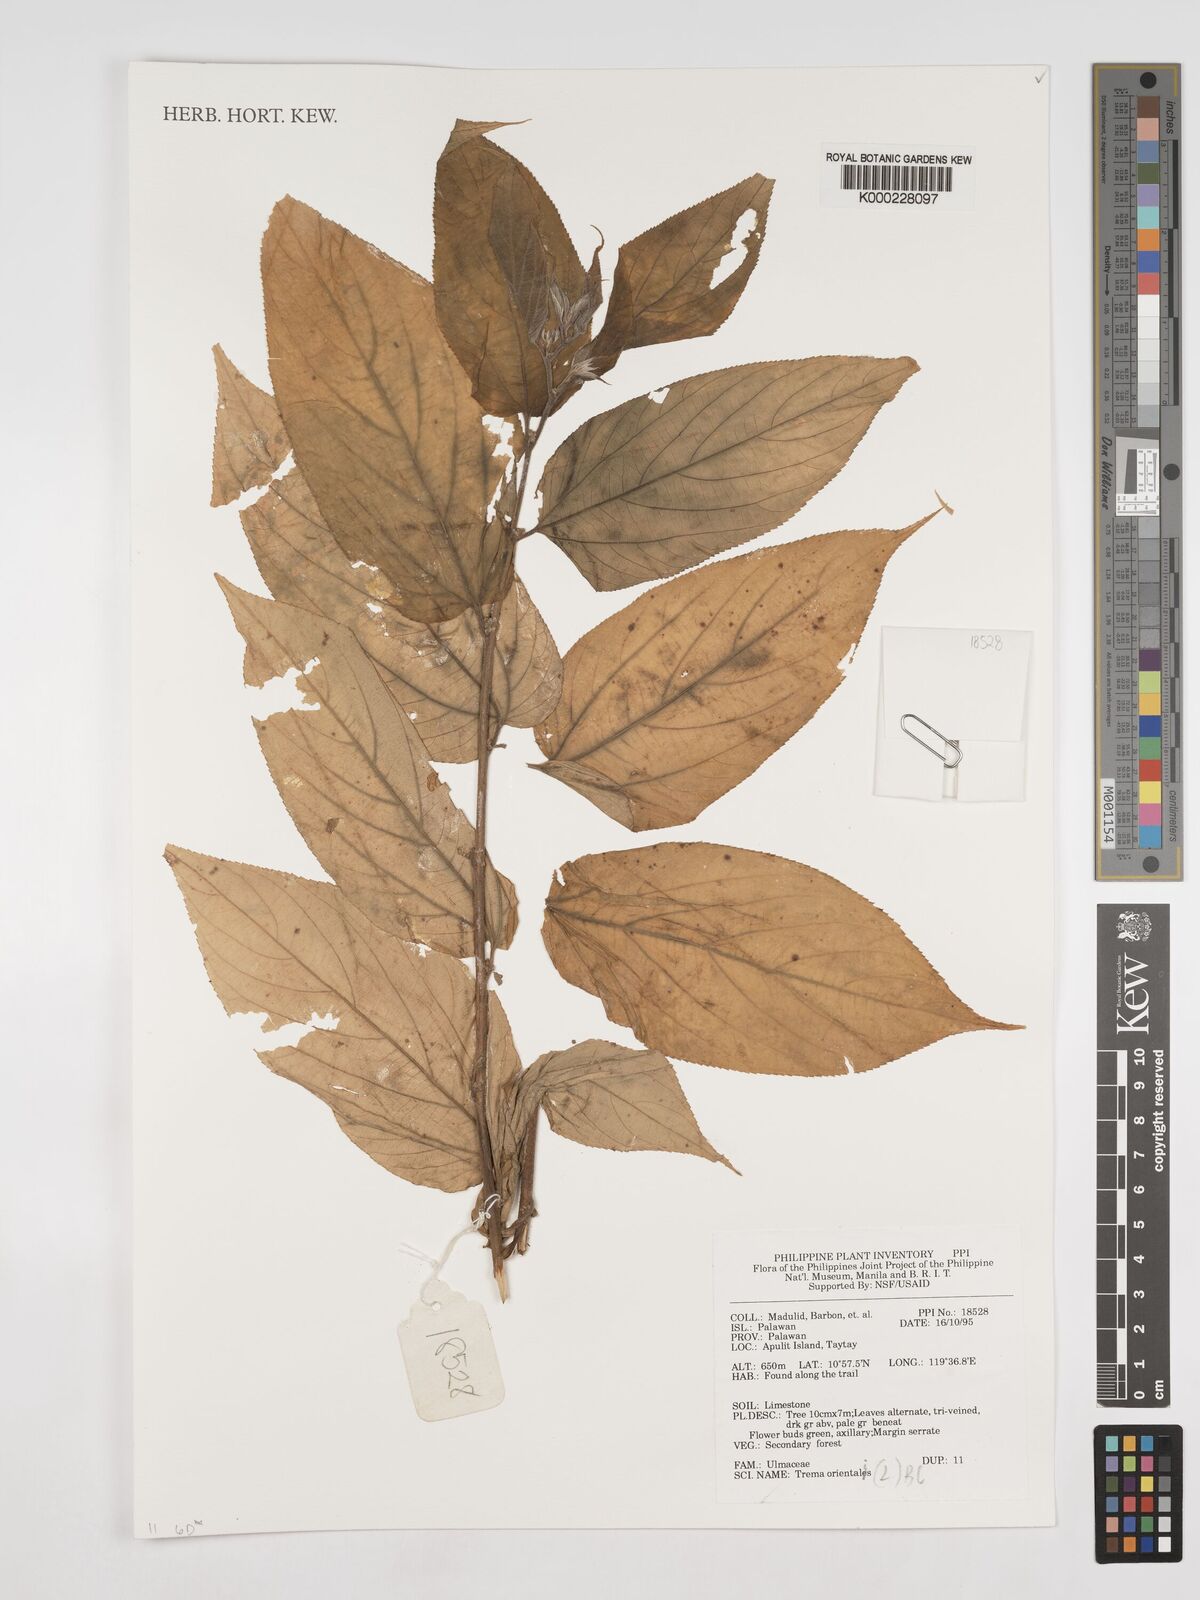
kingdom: Plantae
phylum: Tracheophyta
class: Magnoliopsida
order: Rosales
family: Cannabaceae
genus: Trema
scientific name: Trema
